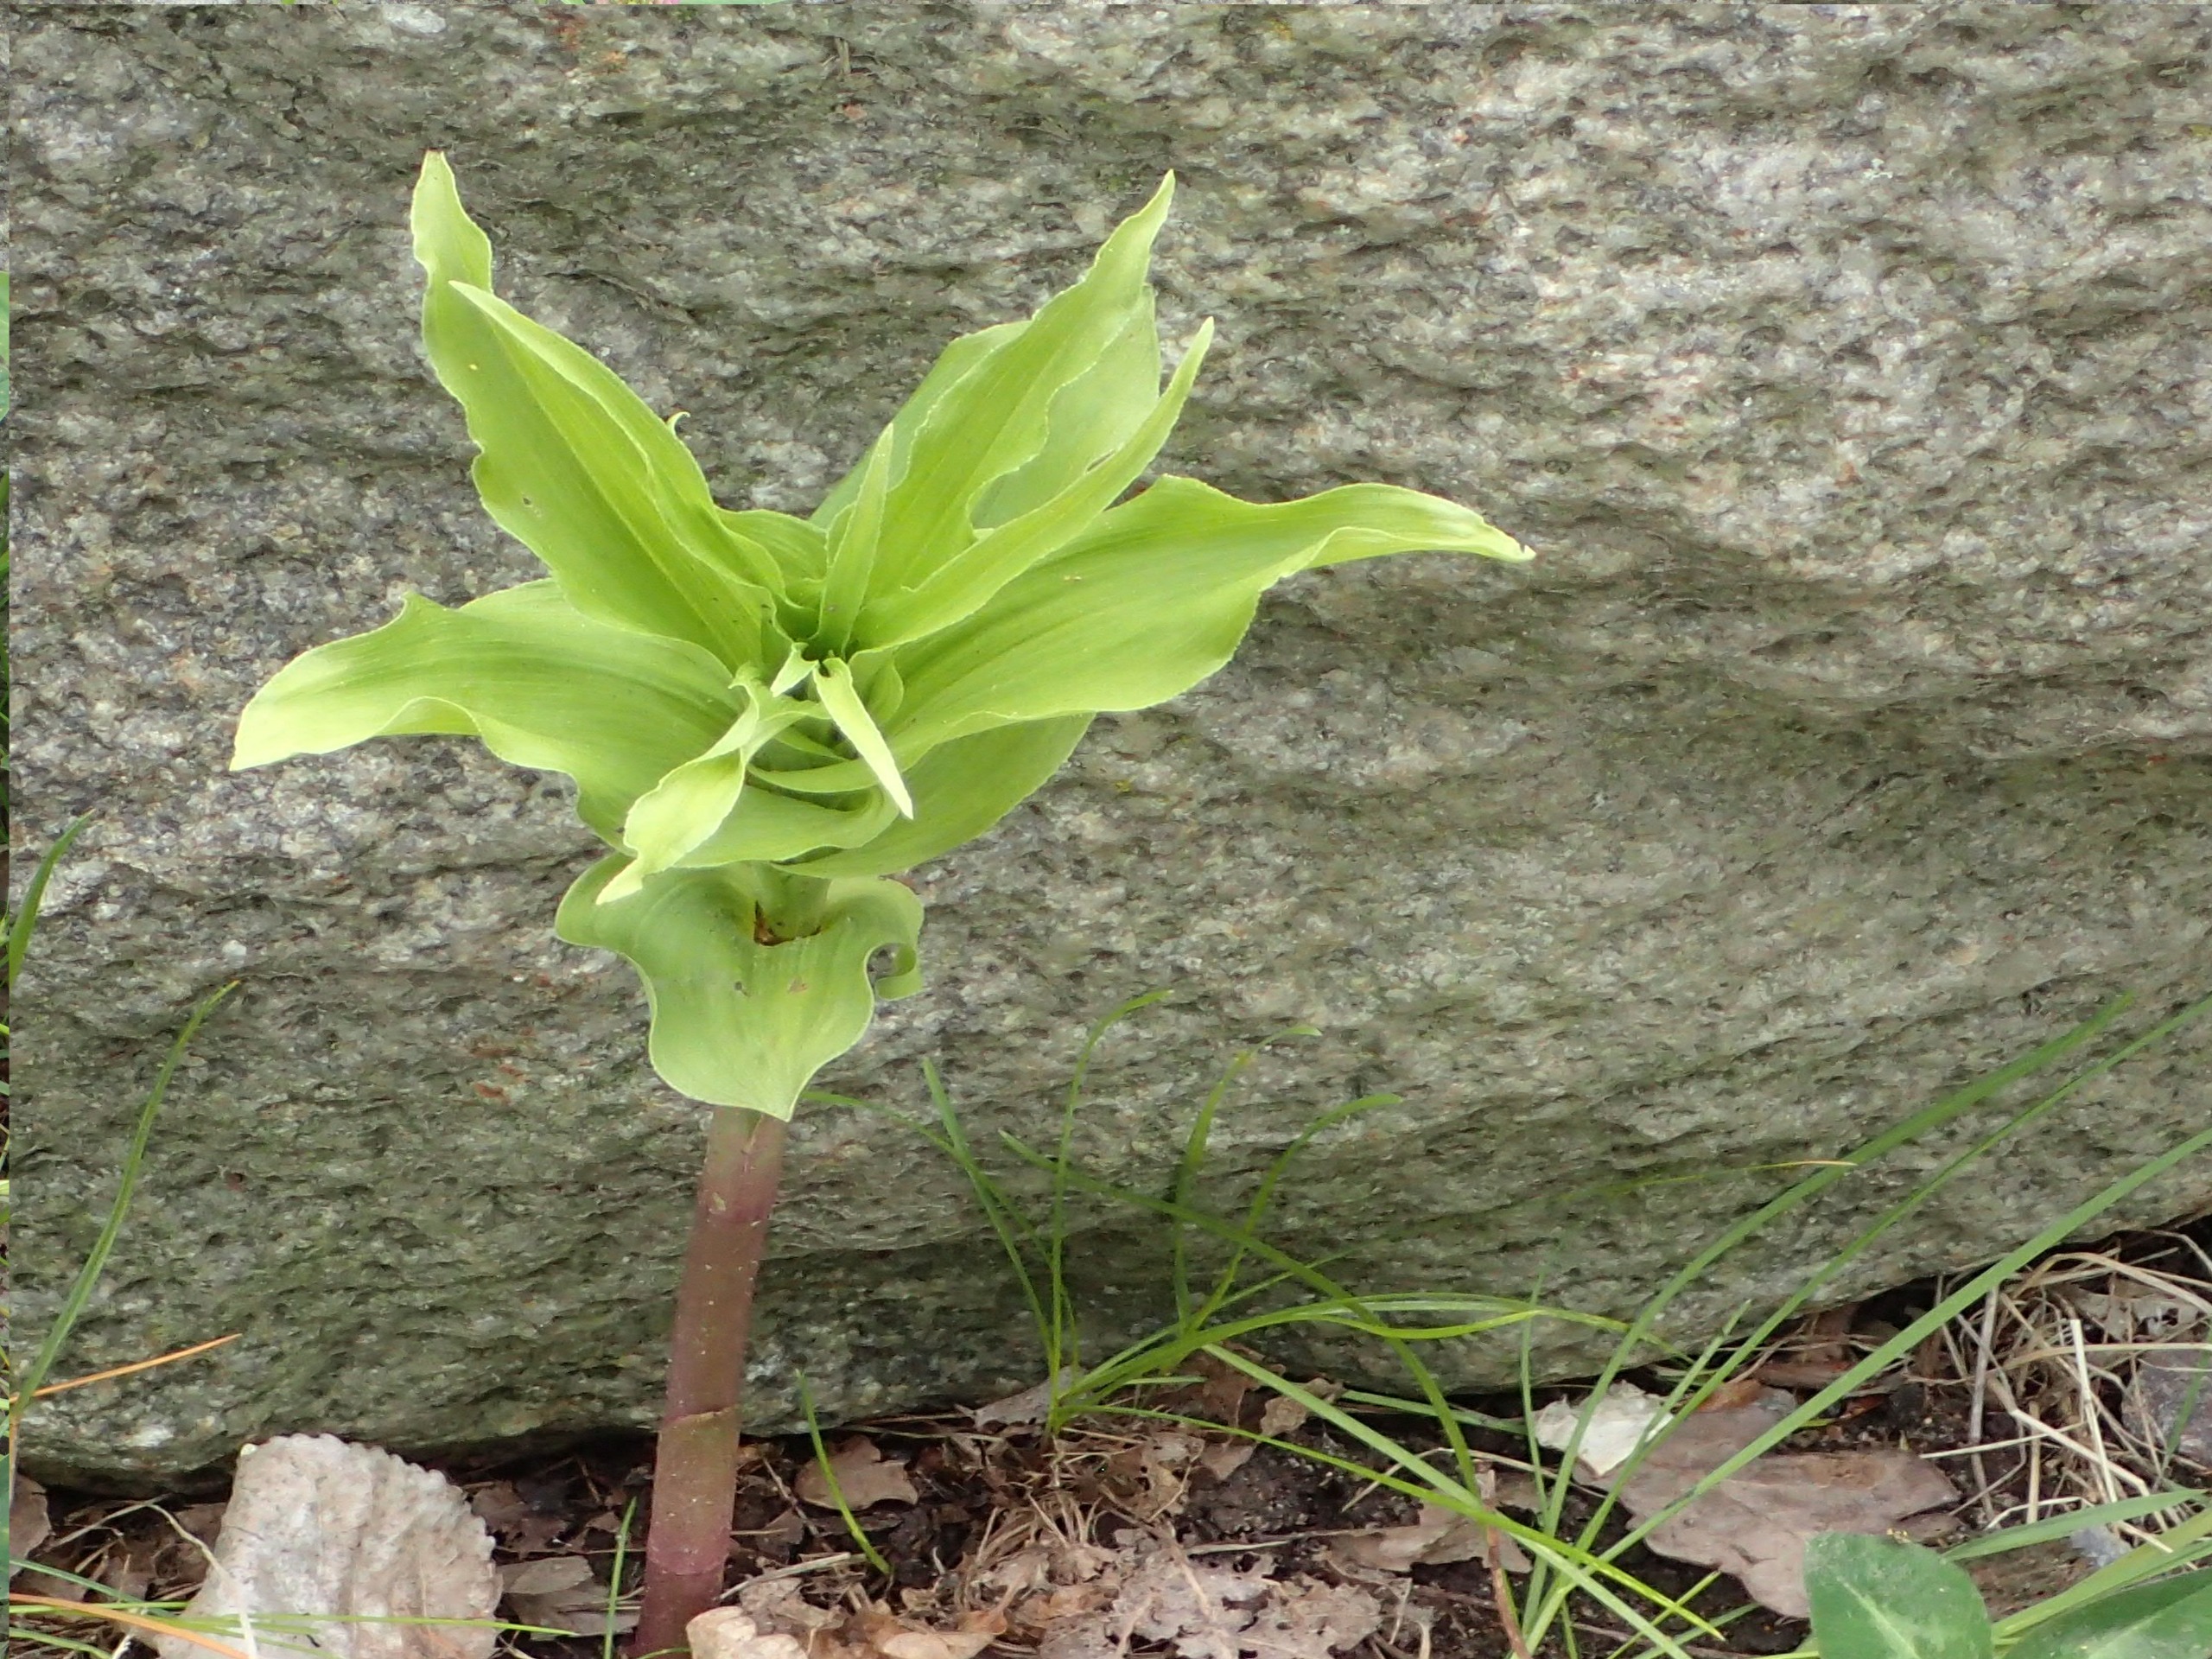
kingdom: Plantae
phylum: Tracheophyta
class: Liliopsida
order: Asparagales
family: Orchidaceae
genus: Epipactis
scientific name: Epipactis helleborine
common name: Skov-hullæbe
